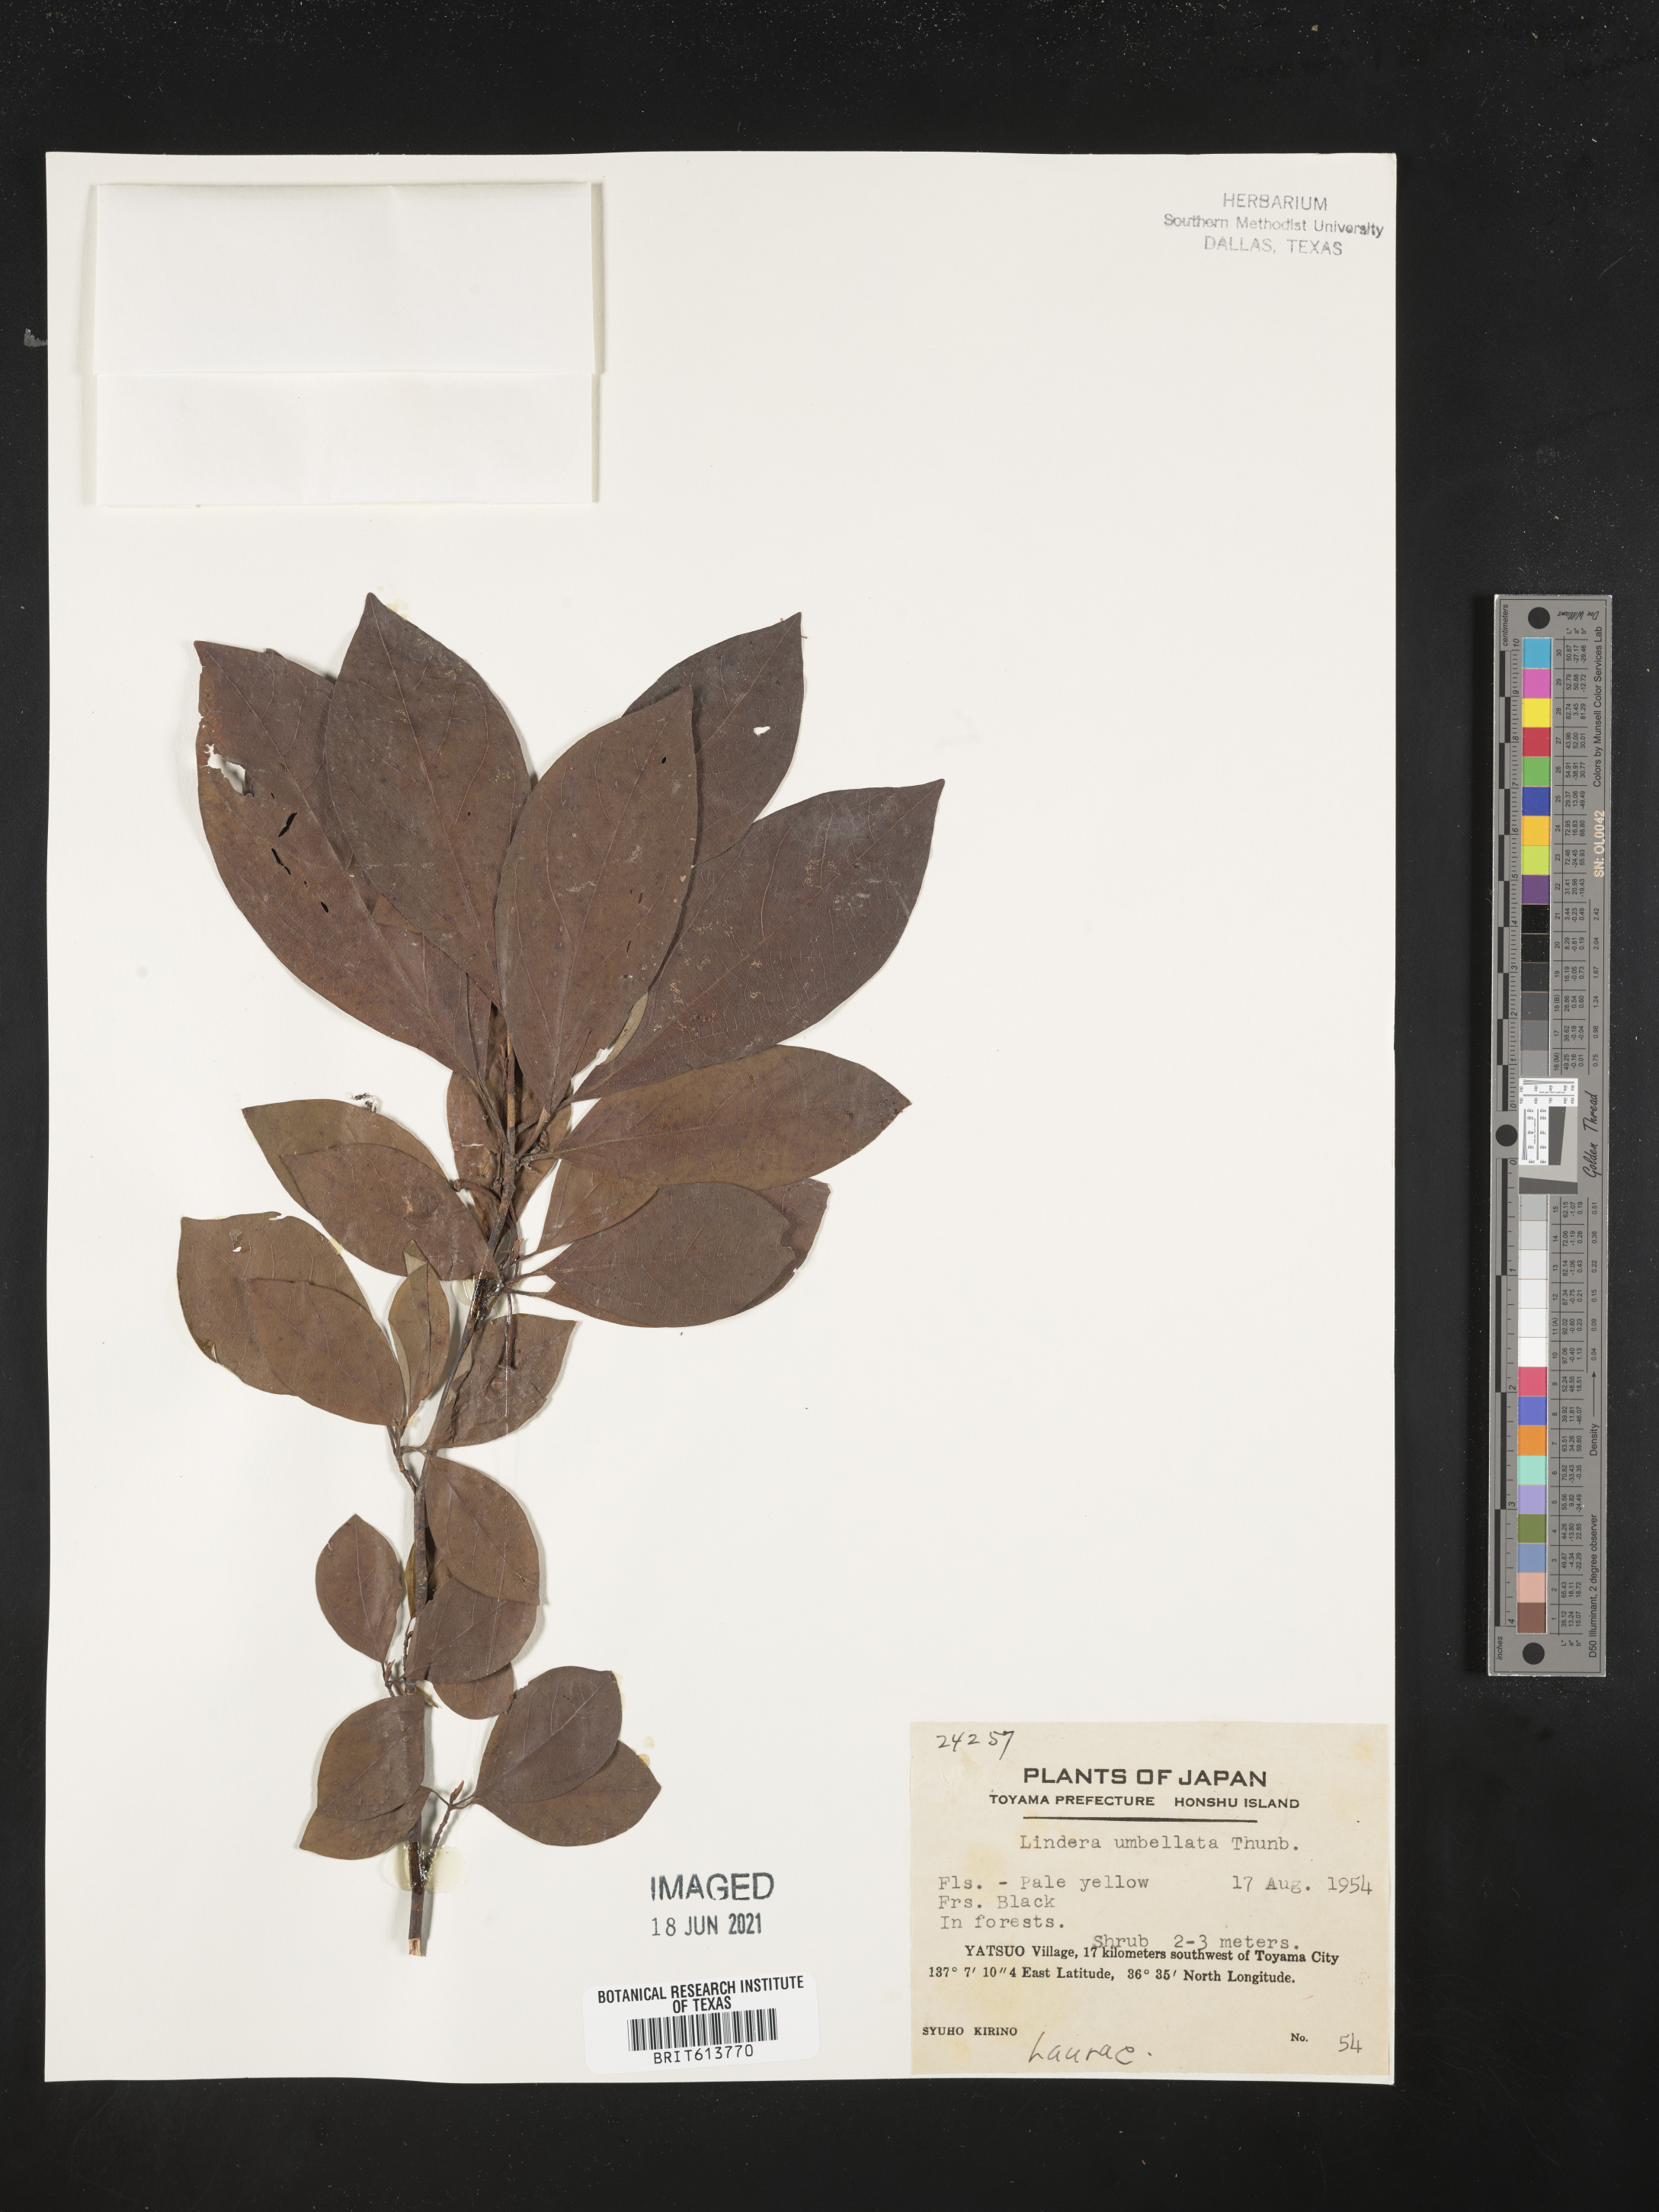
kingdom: Plantae
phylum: Tracheophyta
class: Magnoliopsida
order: Laurales
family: Lauraceae
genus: Lindera
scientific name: Lindera umbellata
